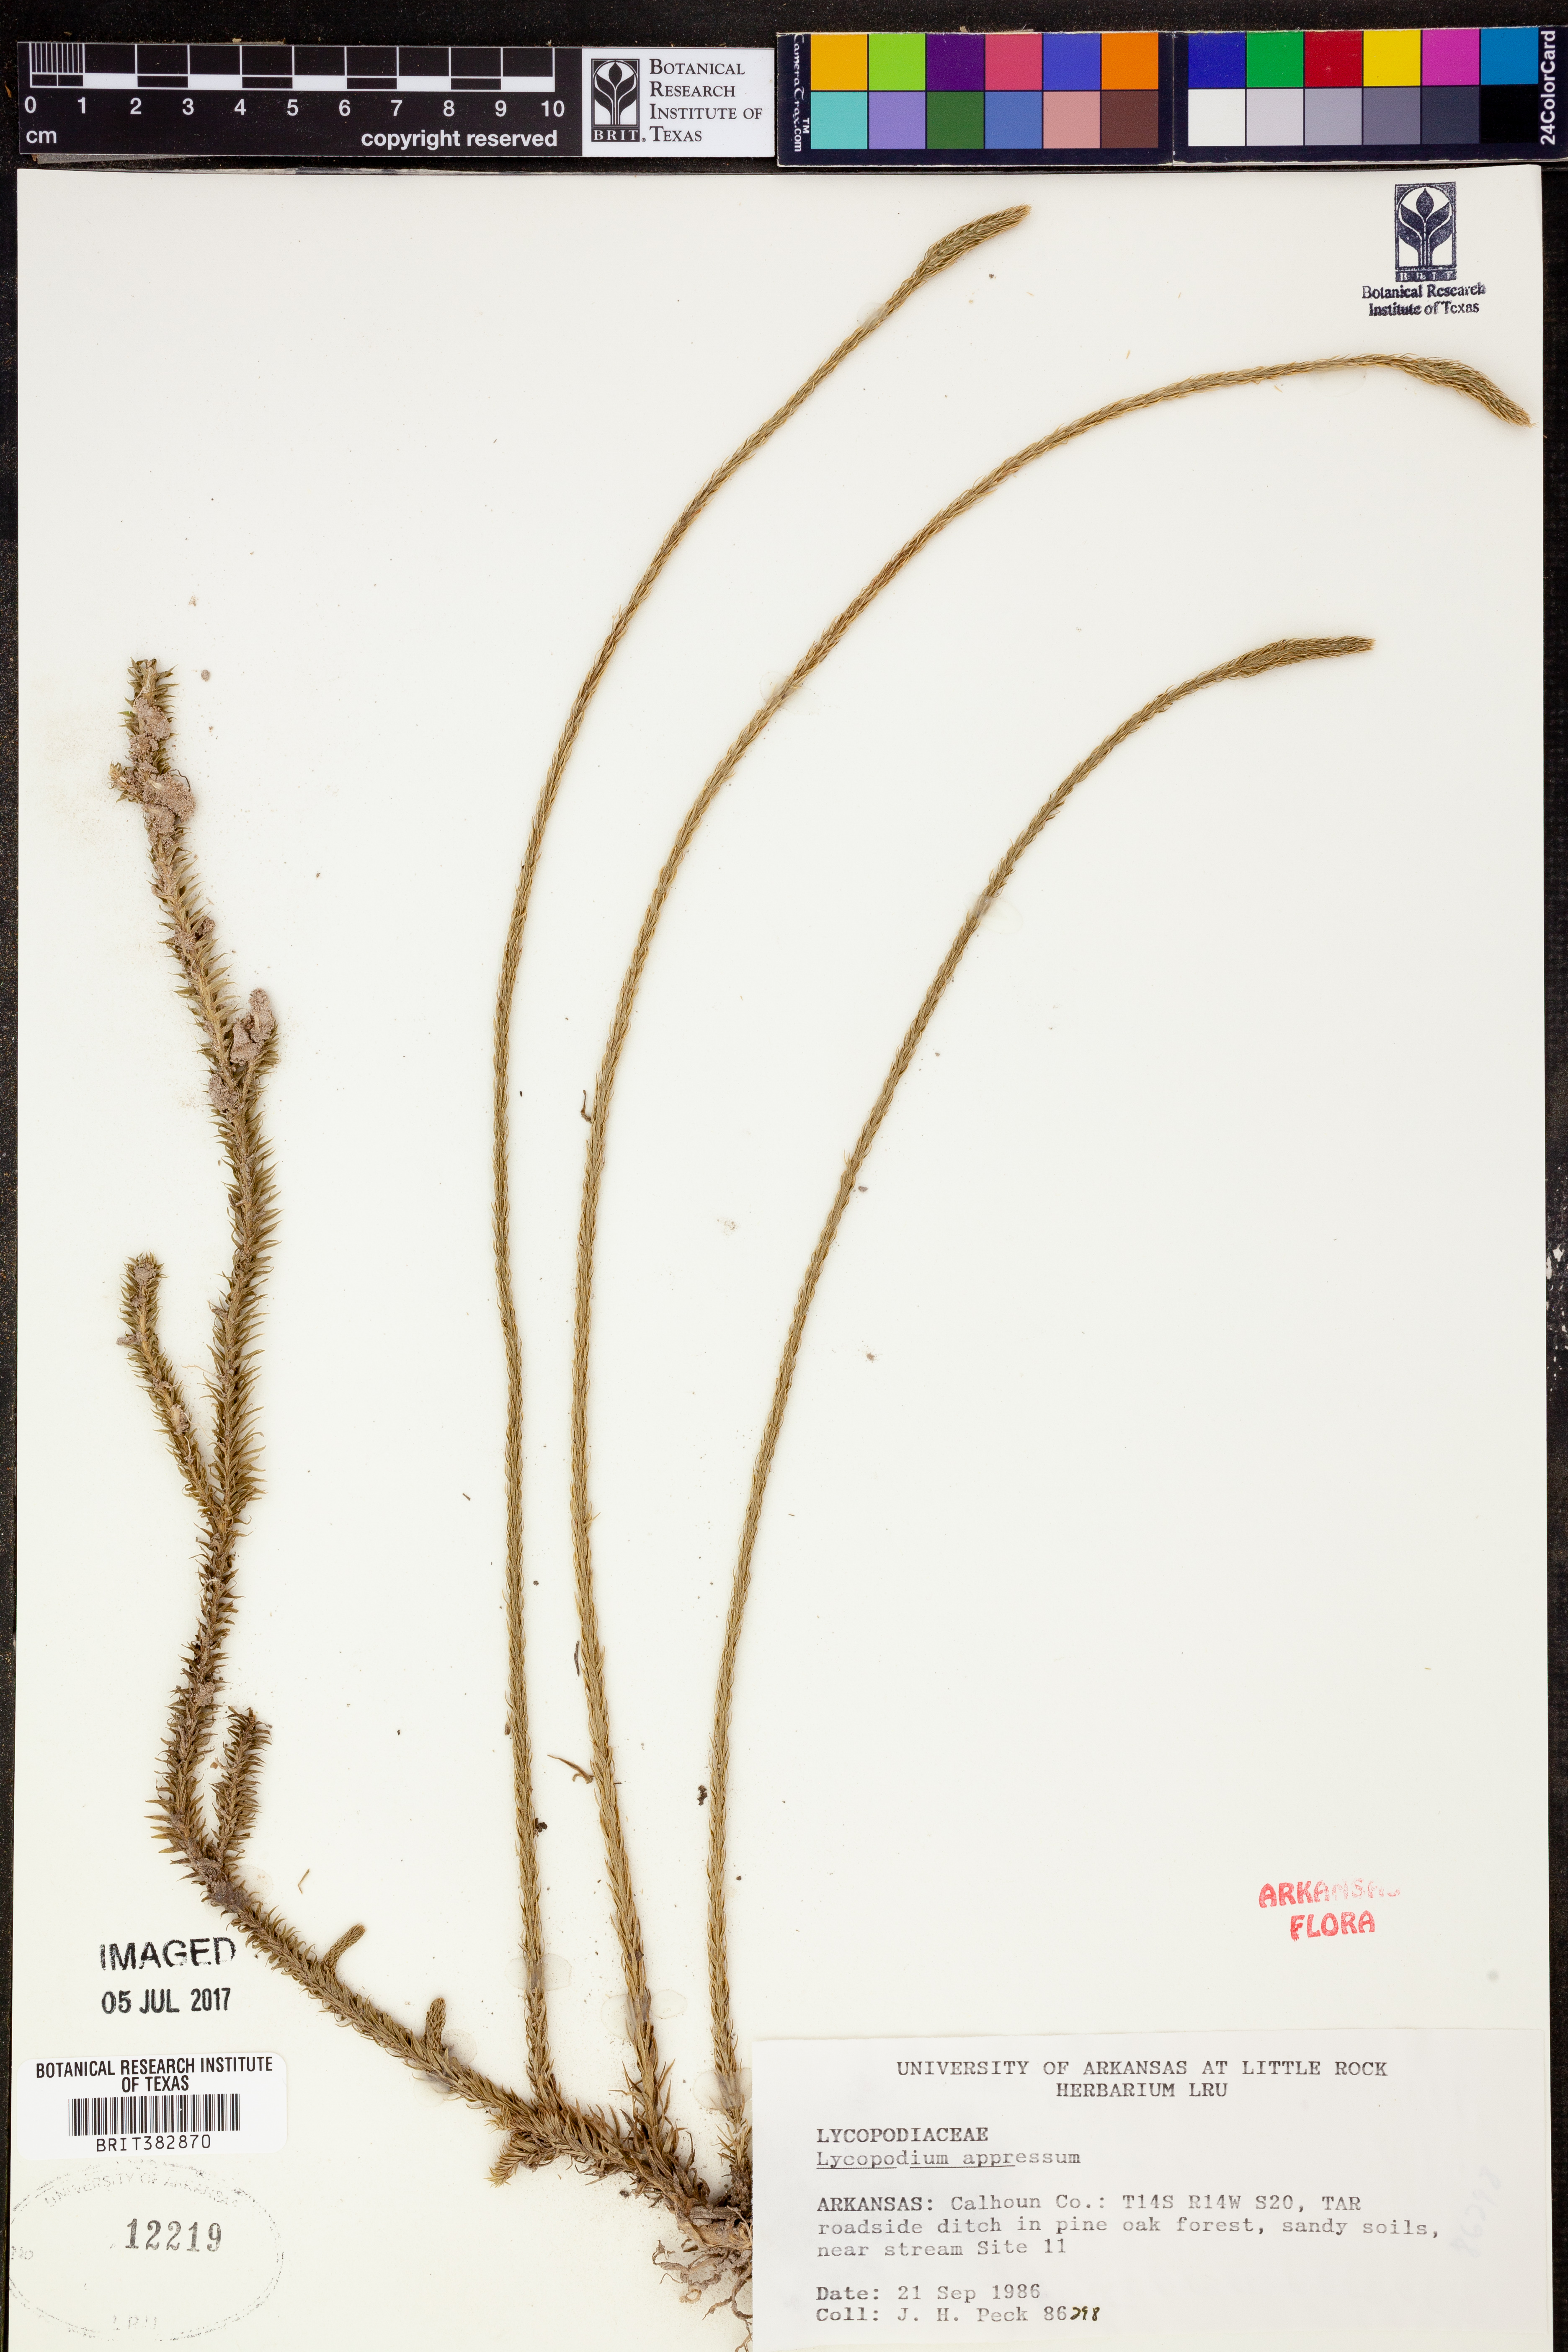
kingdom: Plantae
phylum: Tracheophyta
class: Lycopodiopsida
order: Lycopodiales
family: Lycopodiaceae
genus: Lycopodiella
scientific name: Lycopodiella appressa
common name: Appressed bog clubmoss
